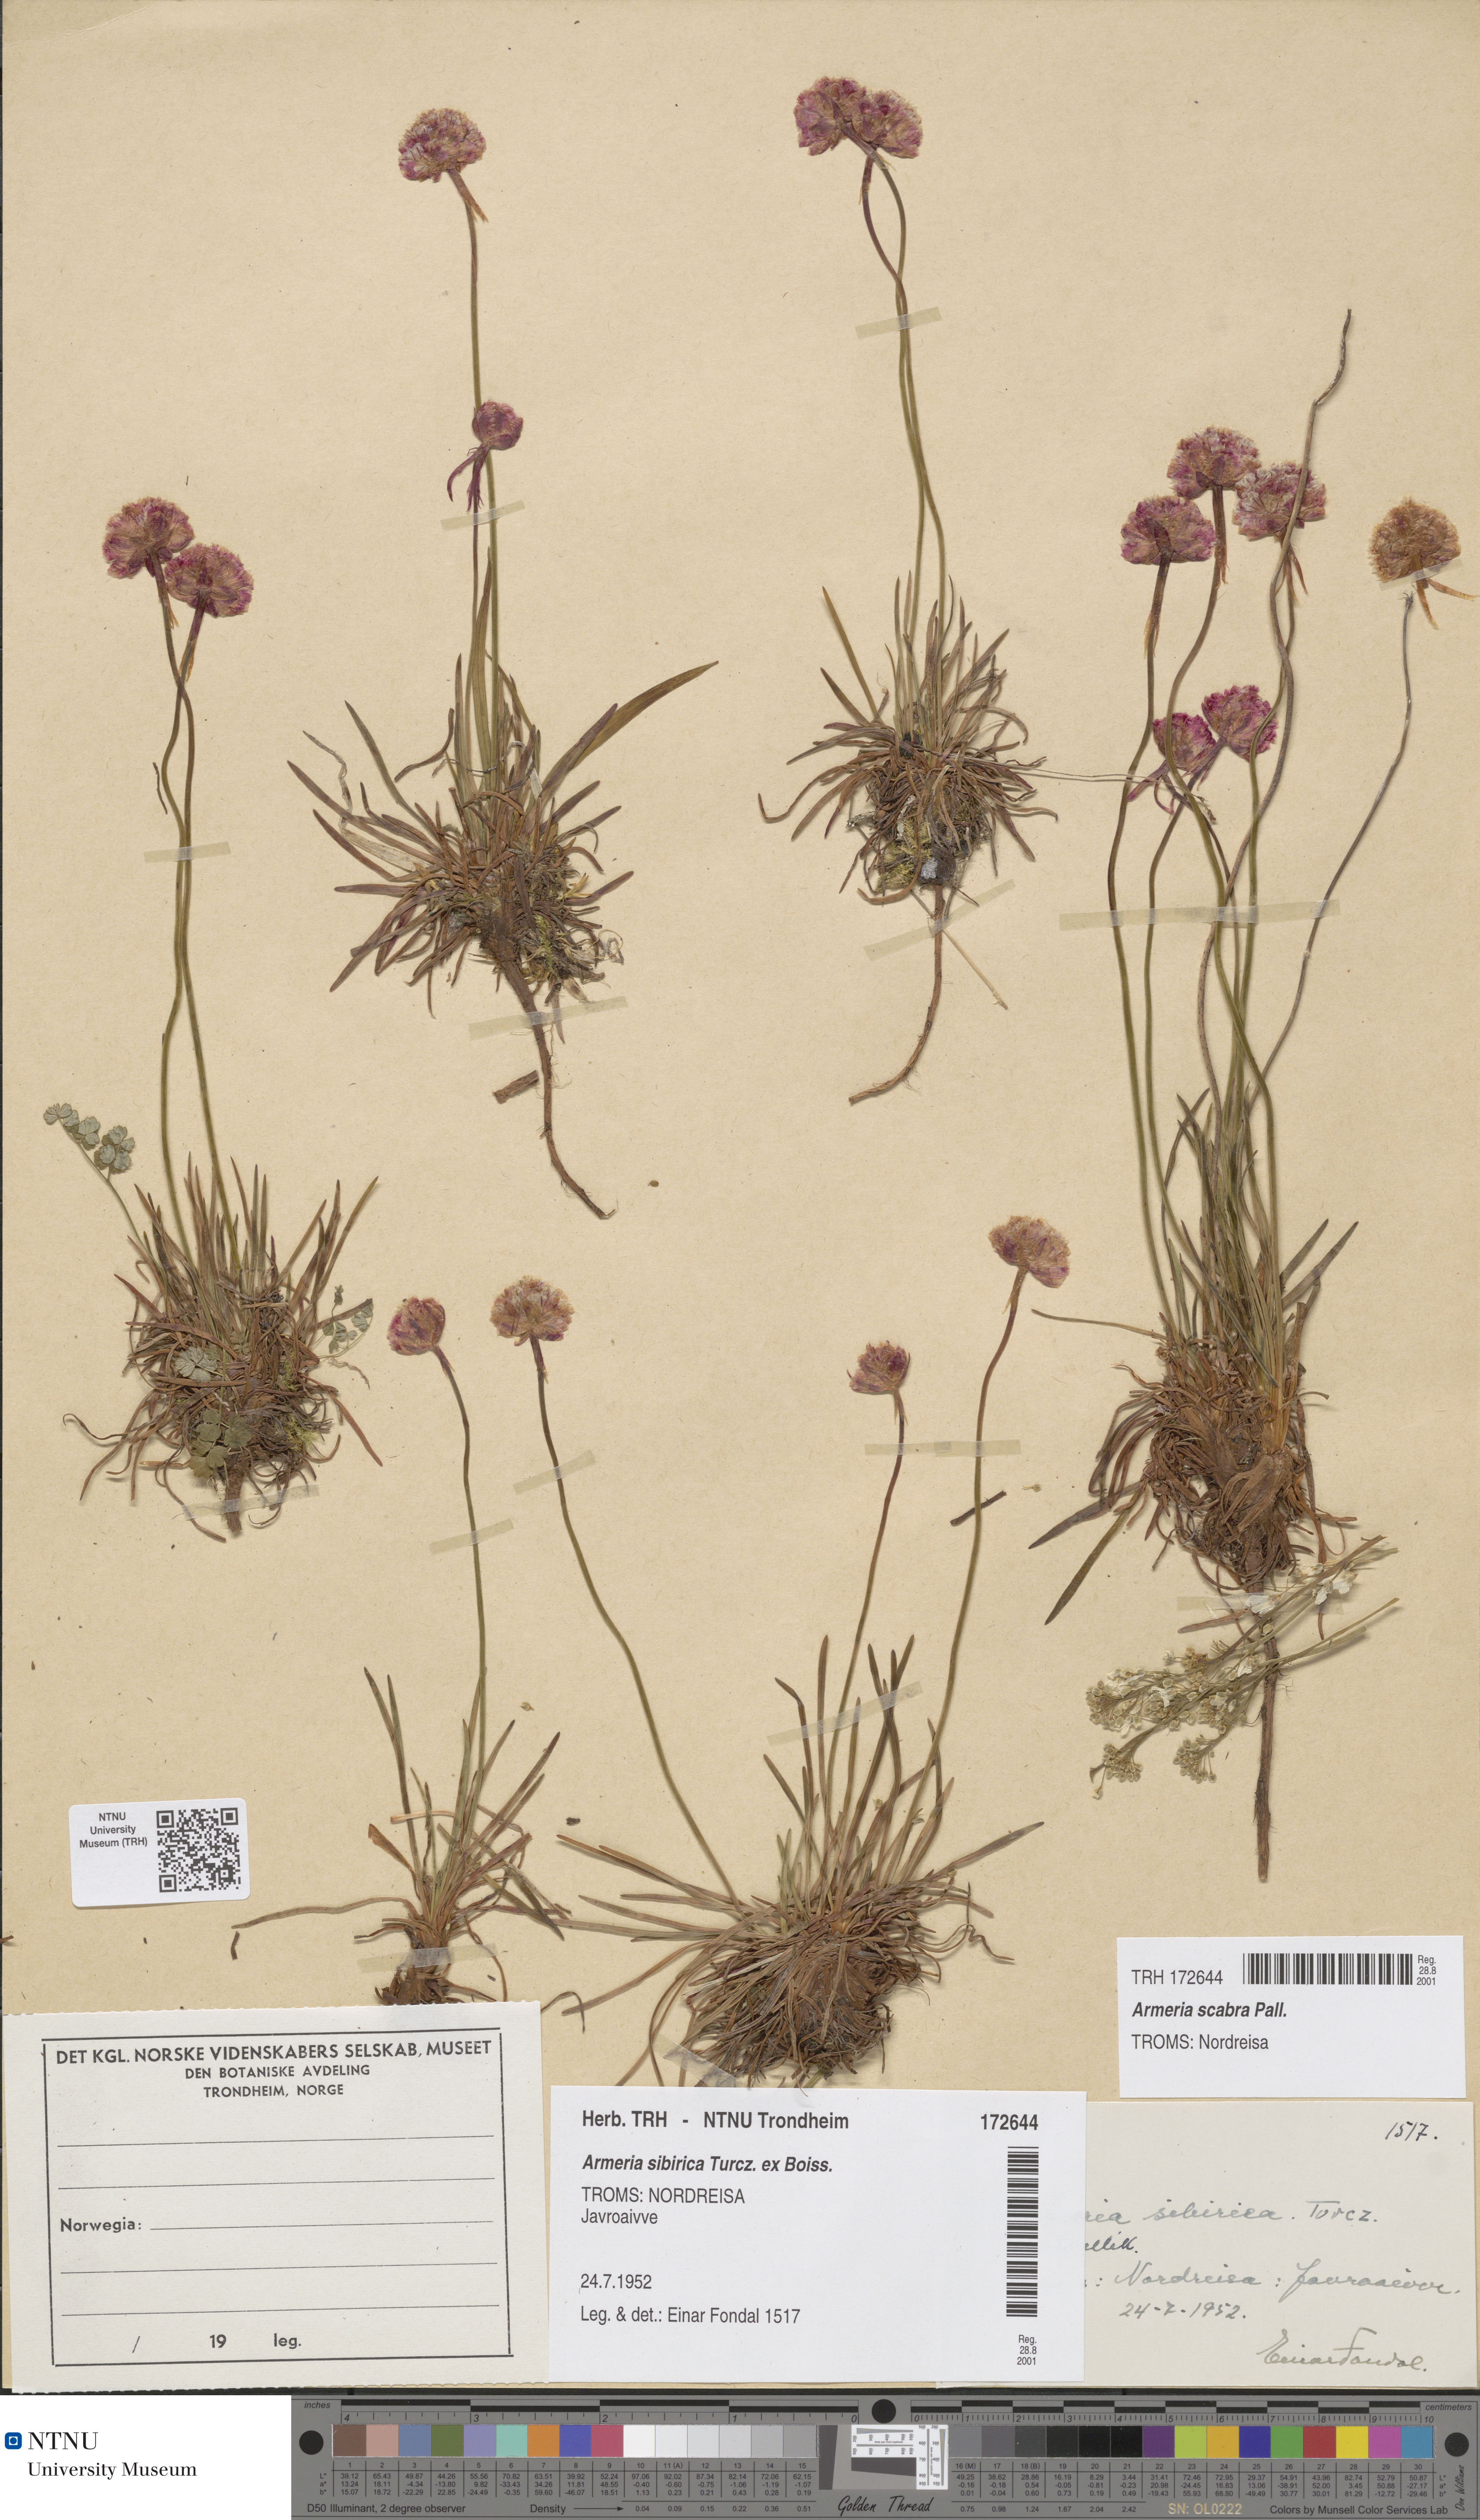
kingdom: Plantae
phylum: Tracheophyta
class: Magnoliopsida
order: Caryophyllales
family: Plumbaginaceae
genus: Armeria
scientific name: Armeria maritima
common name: Thrift
